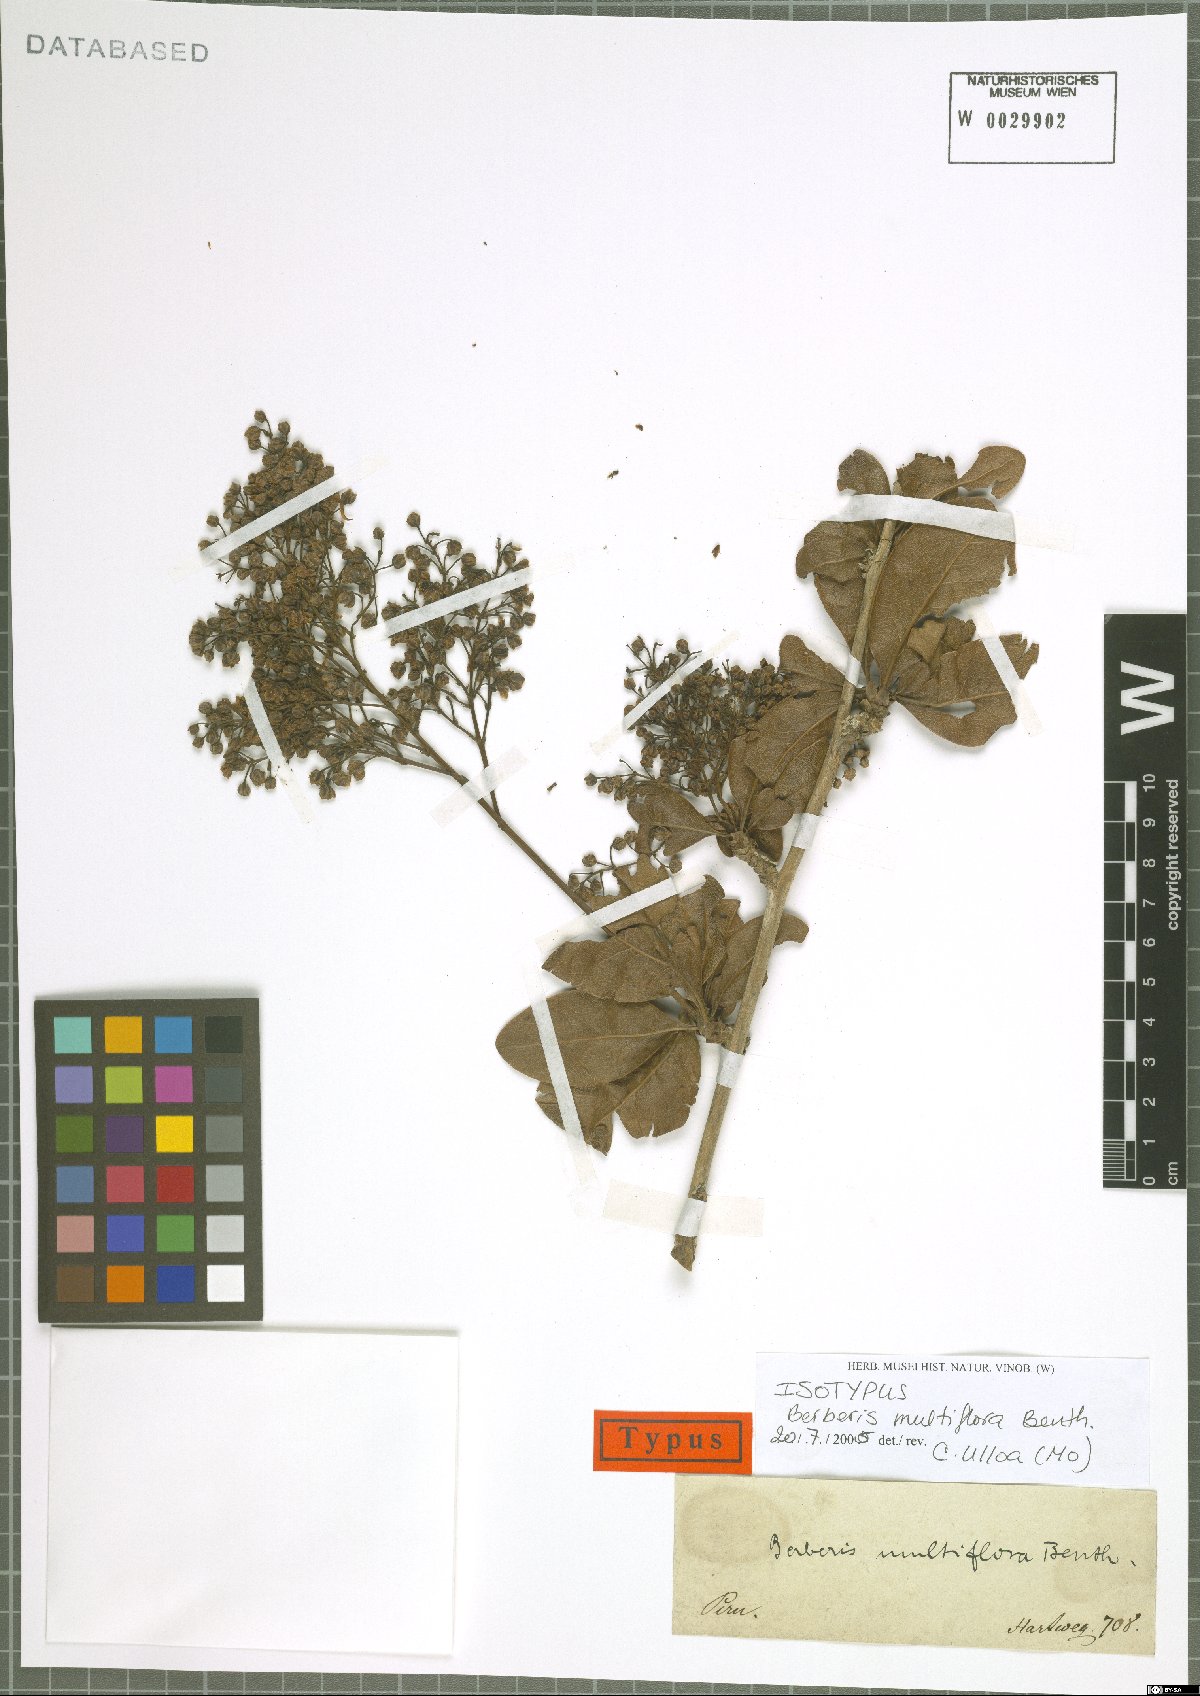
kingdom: Plantae
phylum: Tracheophyta
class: Magnoliopsida
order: Ranunculales
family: Berberidaceae
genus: Berberis
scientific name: Berberis multiflora
